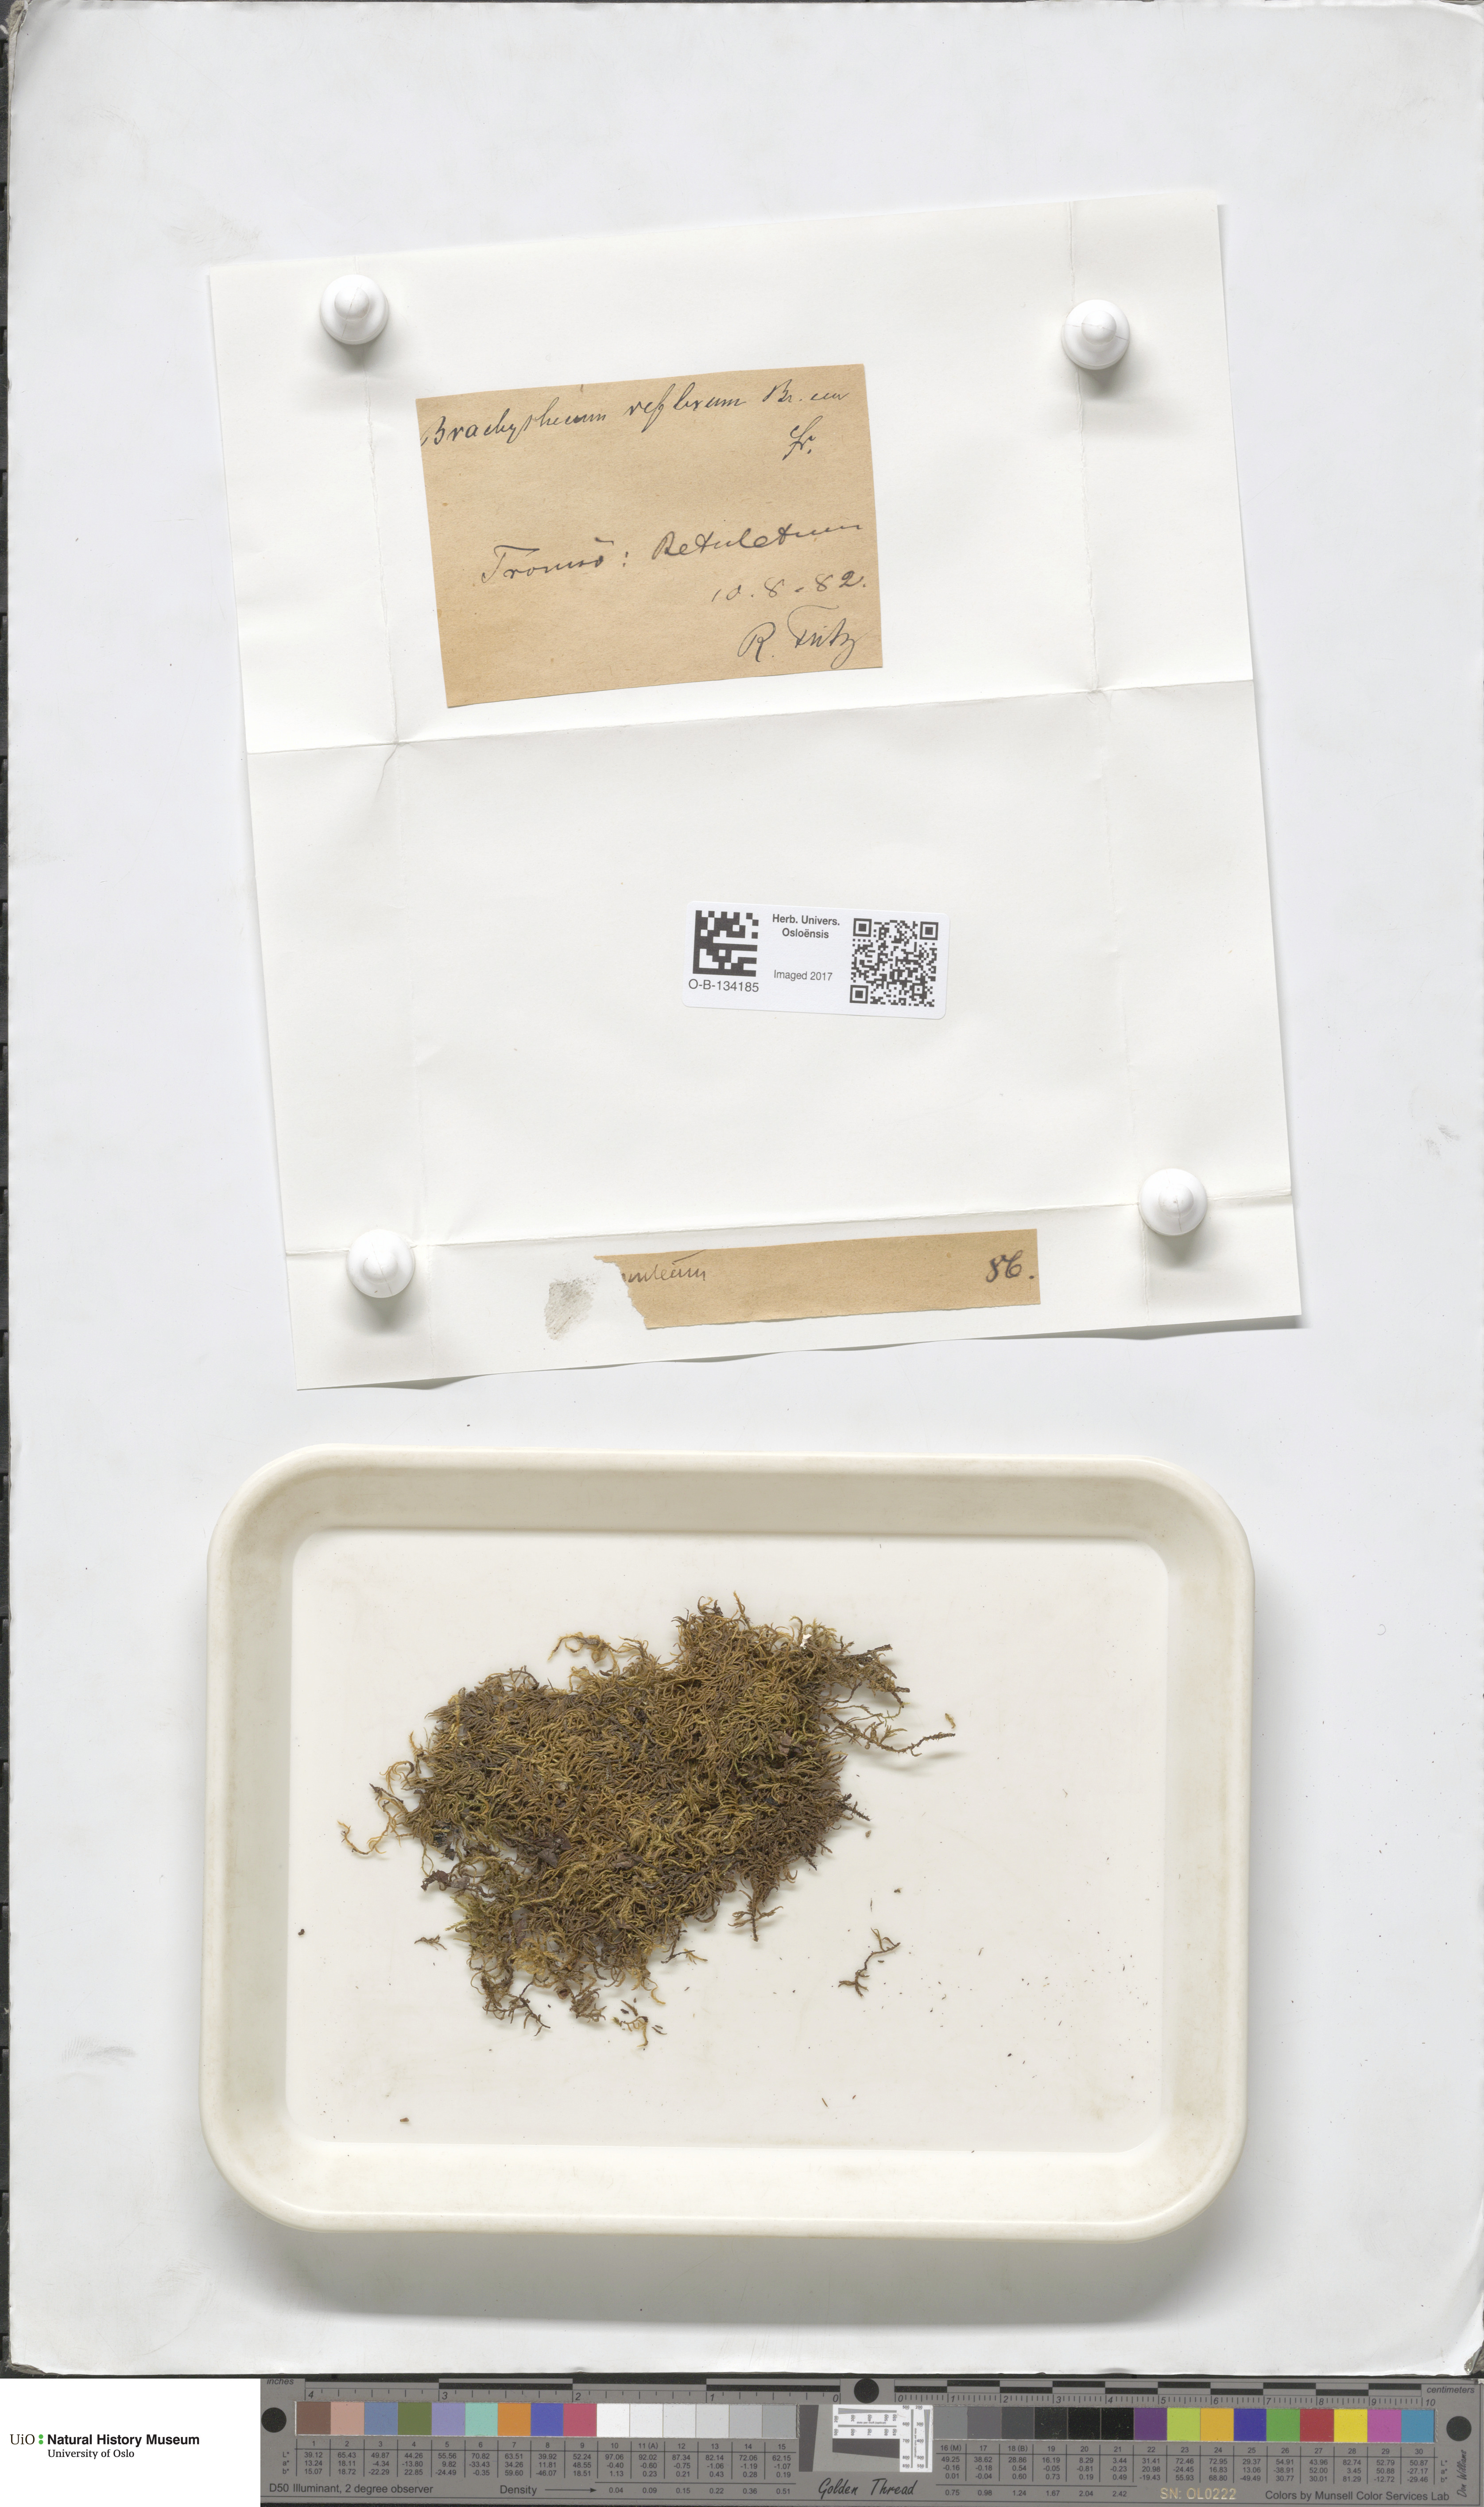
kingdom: Plantae
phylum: Bryophyta
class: Bryopsida
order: Hypnales
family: Brachytheciaceae
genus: Sciuro-hypnum
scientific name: Sciuro-hypnum reflexum
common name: Reflexed feather-moss
